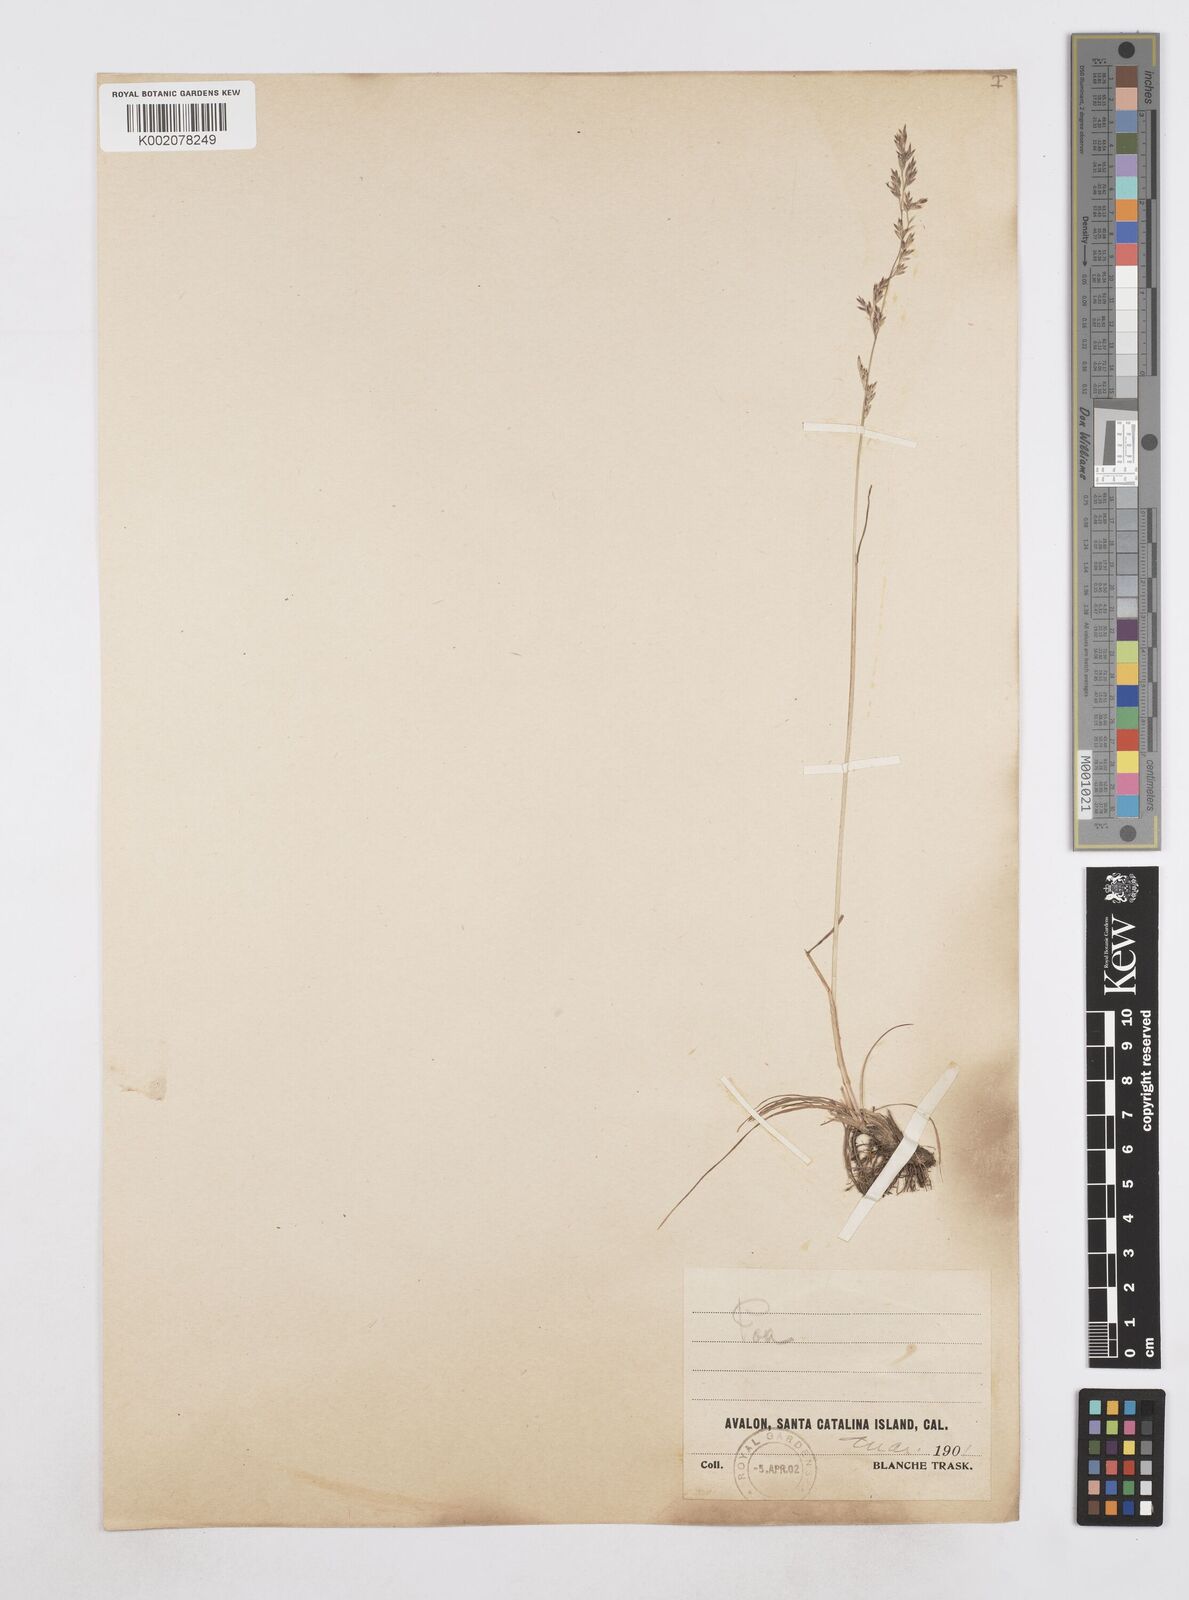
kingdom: Plantae
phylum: Tracheophyta
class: Liliopsida
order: Poales
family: Poaceae
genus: Poa
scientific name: Poa
